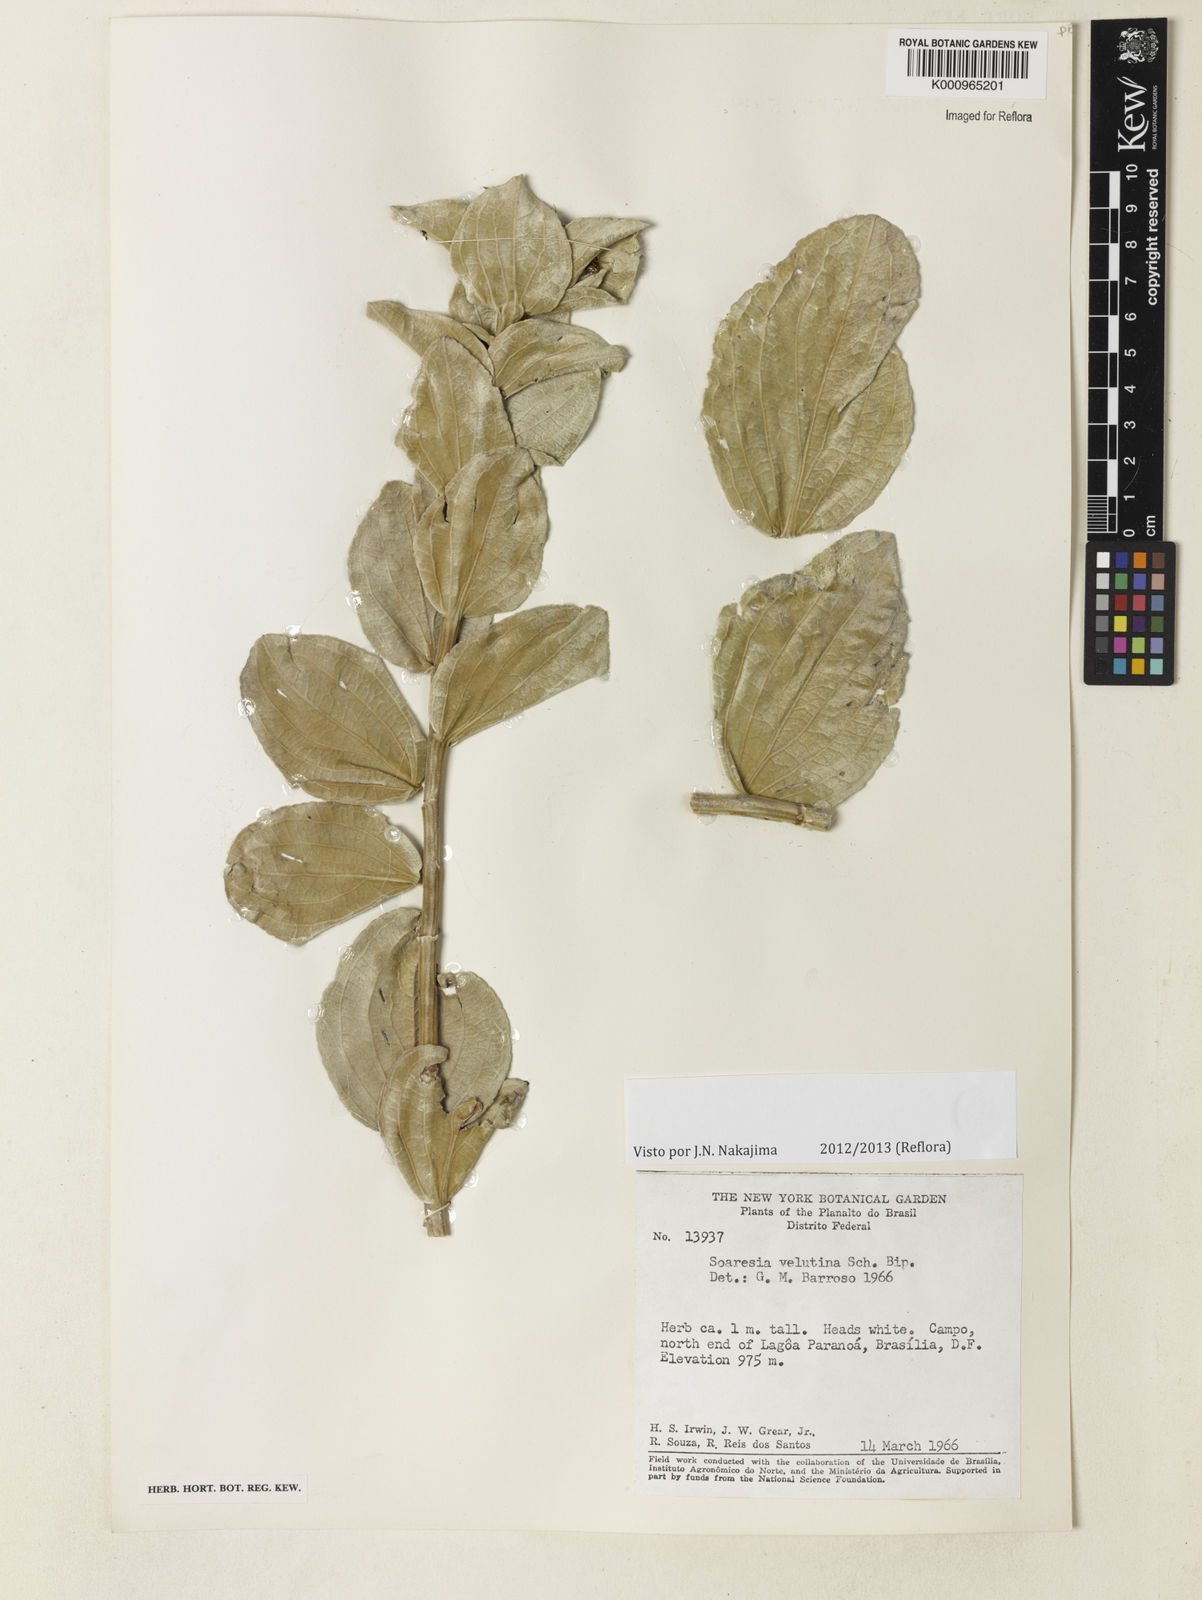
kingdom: Plantae
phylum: Tracheophyta
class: Magnoliopsida
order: Asterales
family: Asteraceae
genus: Soaresia
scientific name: Soaresia velutina
